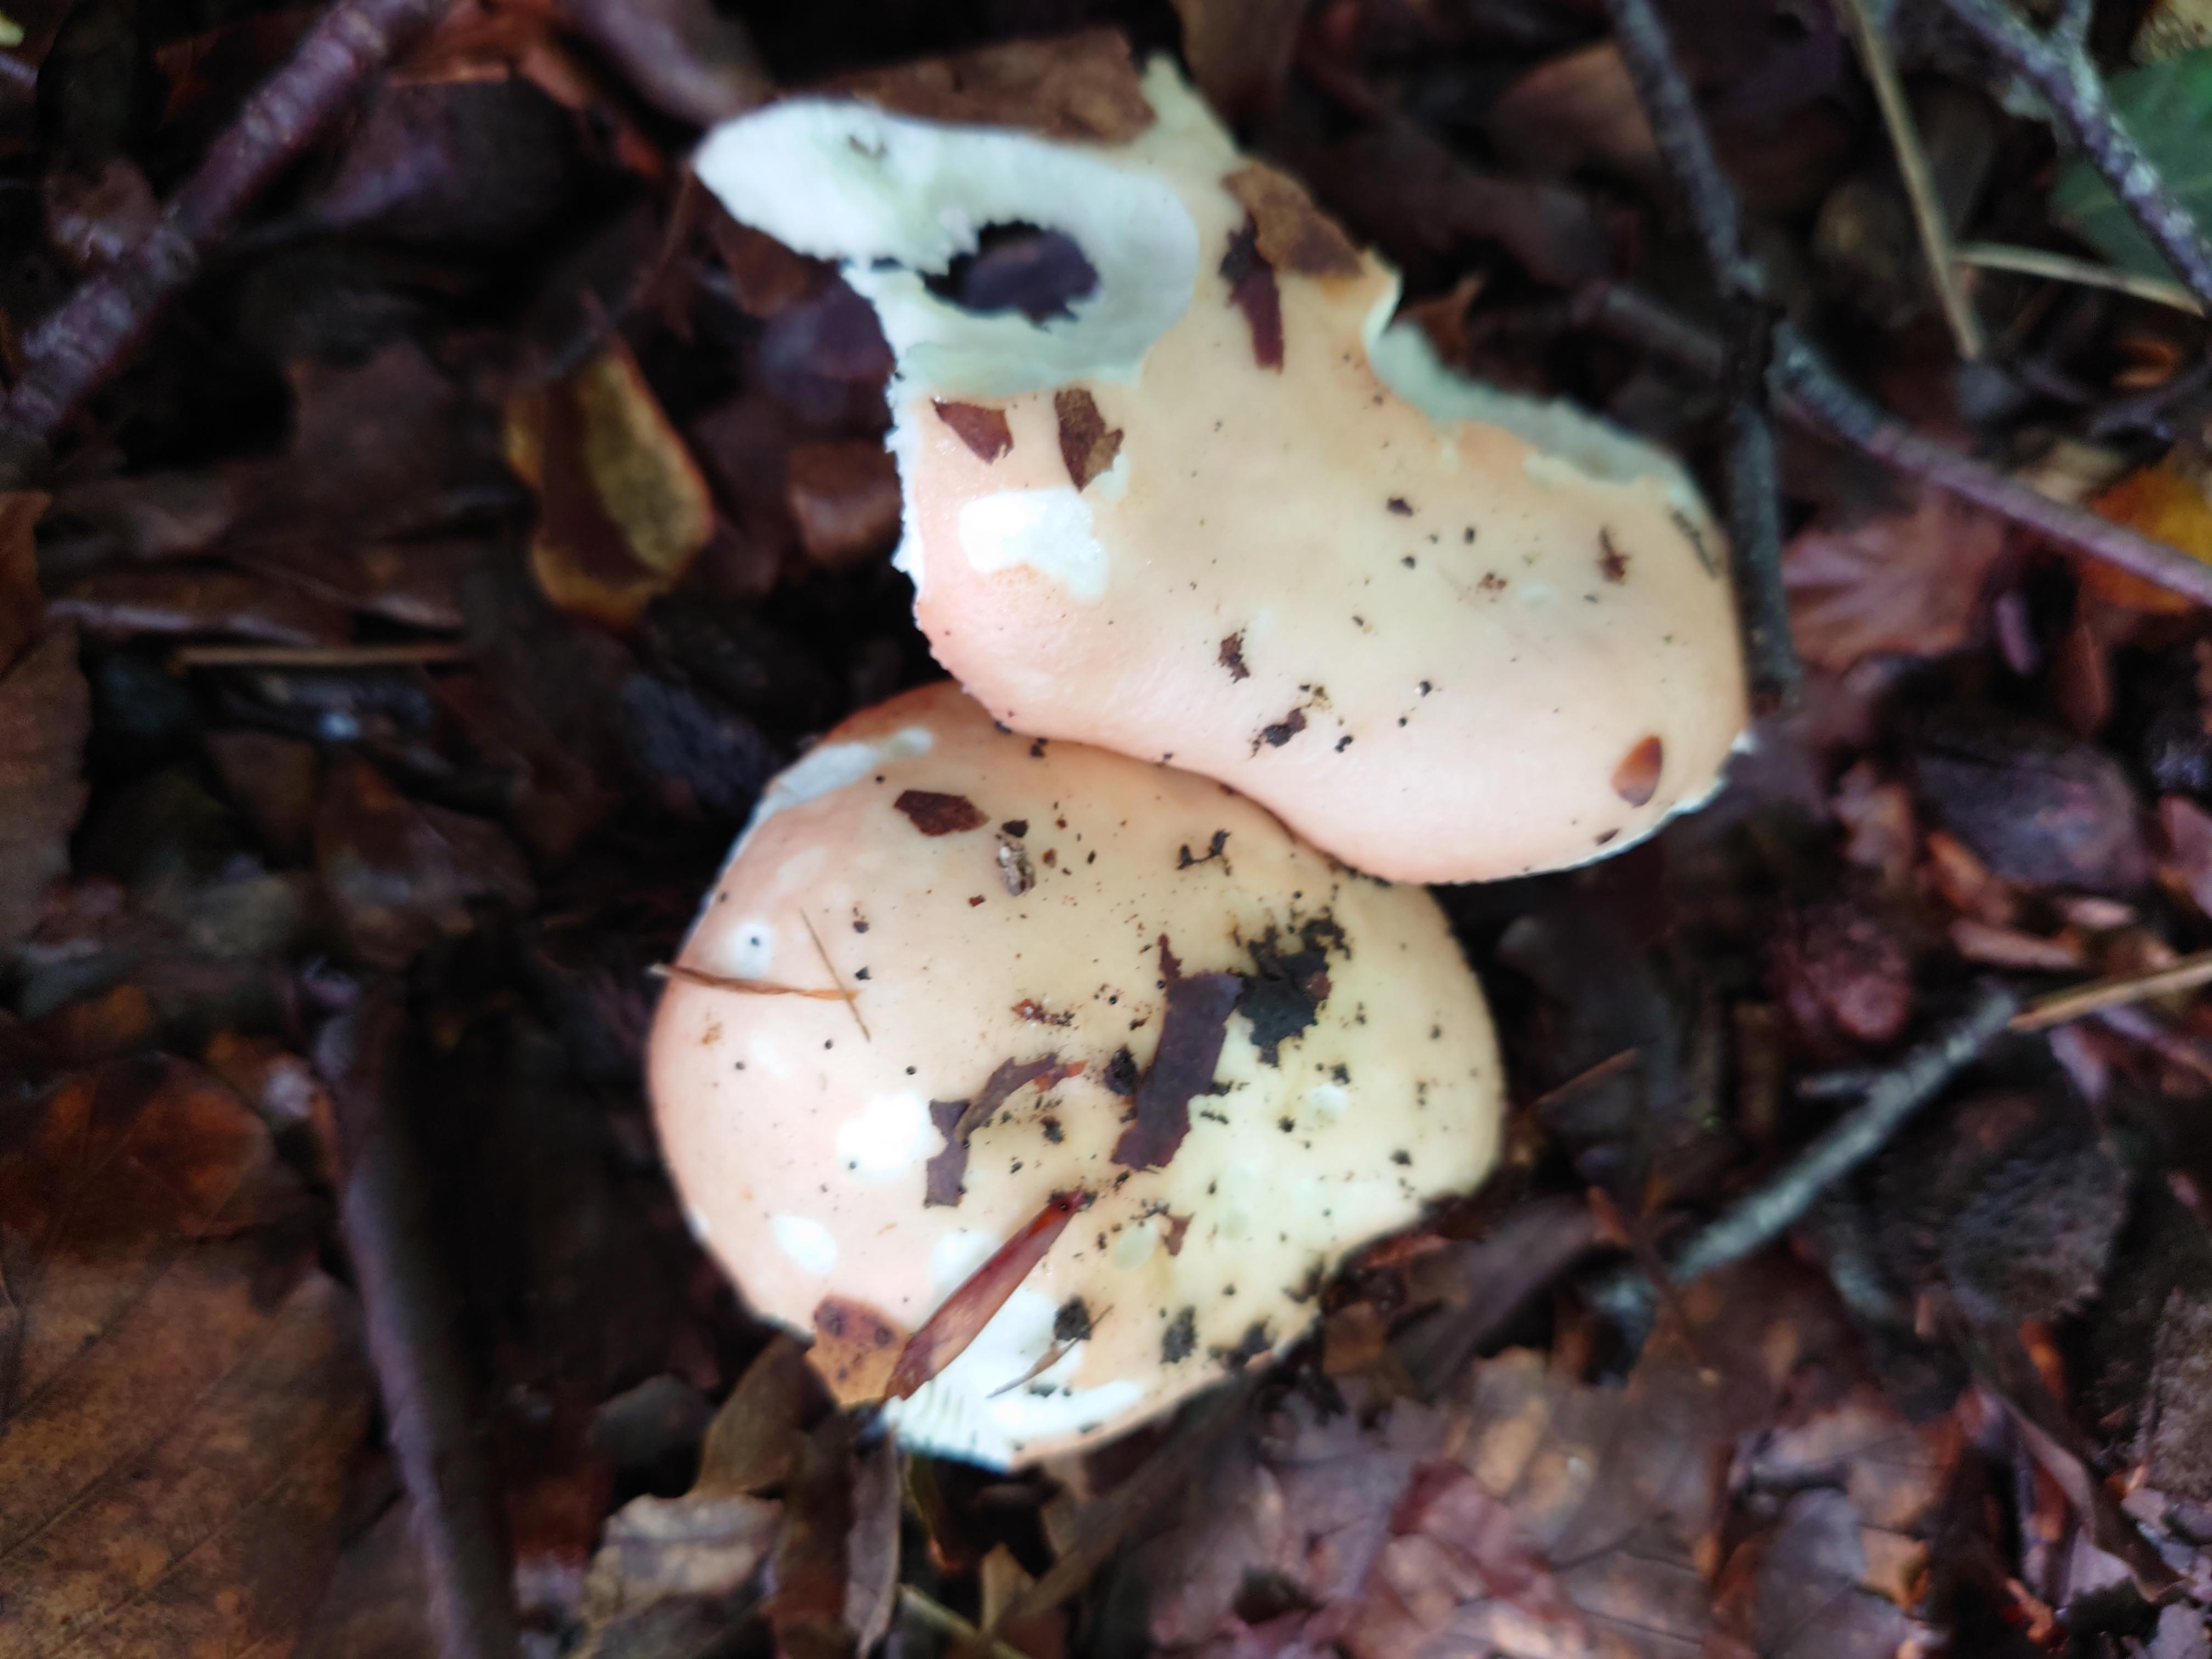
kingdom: Fungi
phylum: Basidiomycota
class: Agaricomycetes
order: Russulales
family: Russulaceae
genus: Russula
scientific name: Russula
